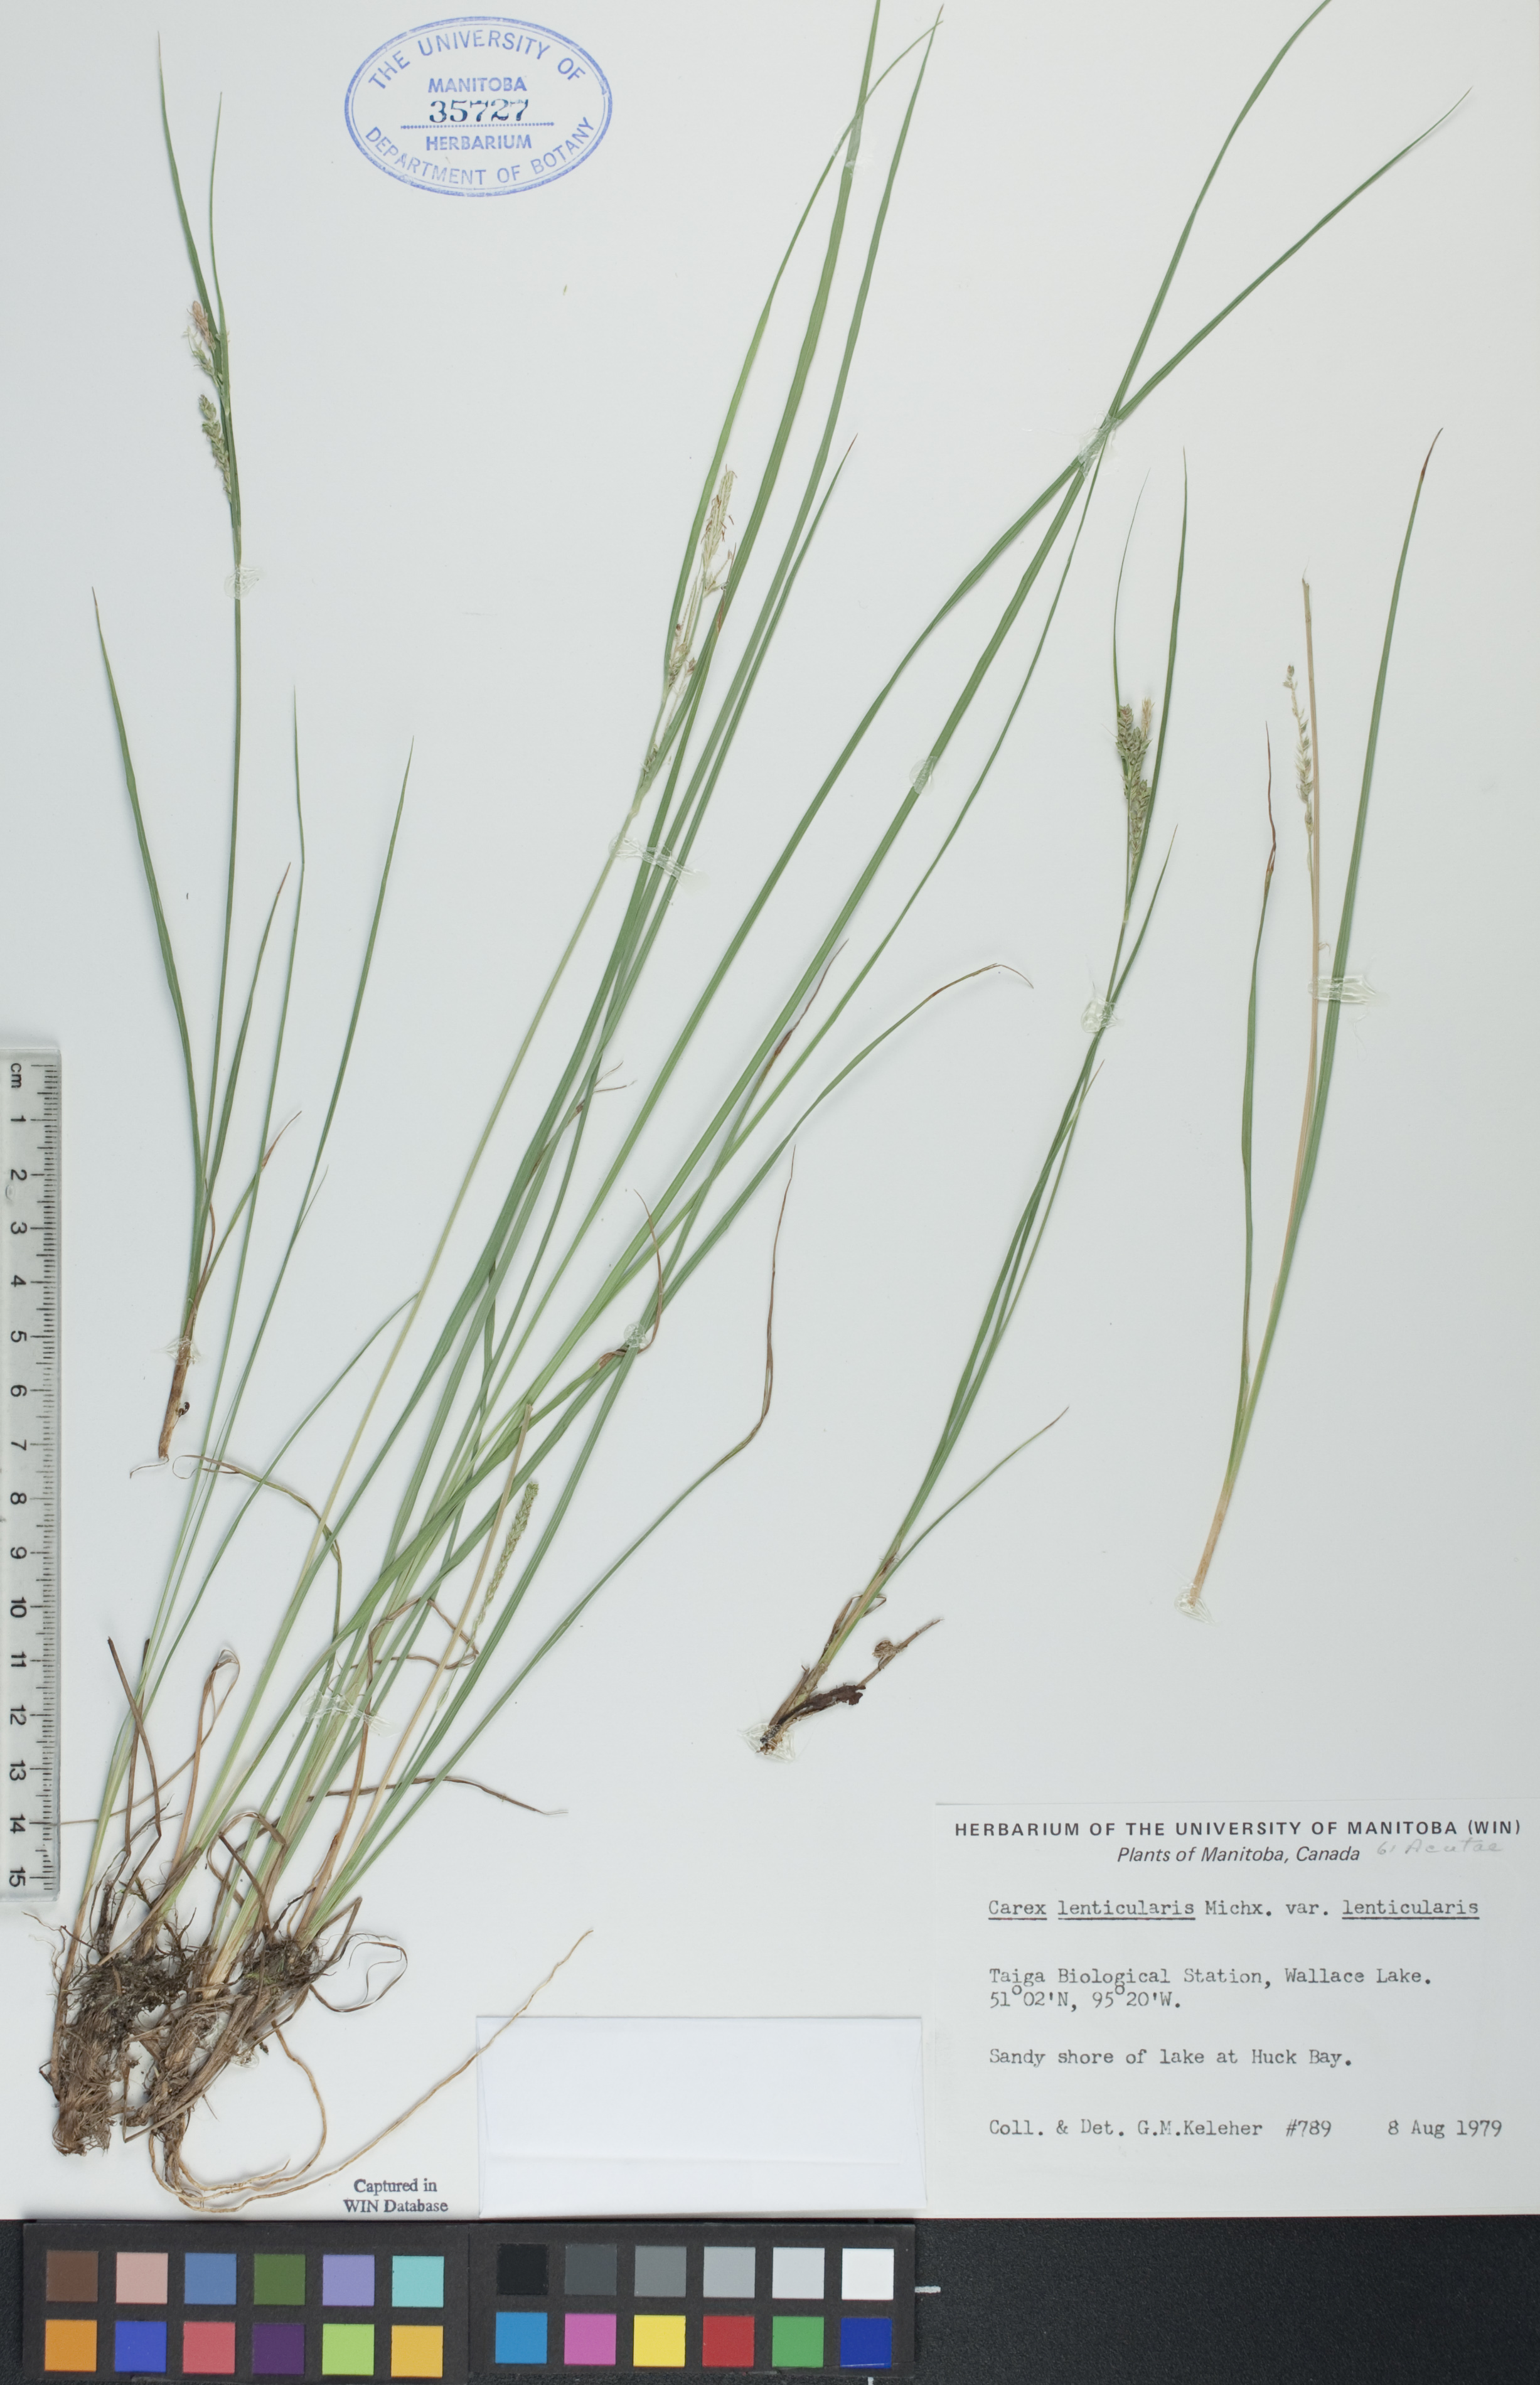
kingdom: Plantae
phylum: Tracheophyta
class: Liliopsida
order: Poales
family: Cyperaceae
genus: Carex
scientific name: Carex lenticularis
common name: Lakeshore sedge
